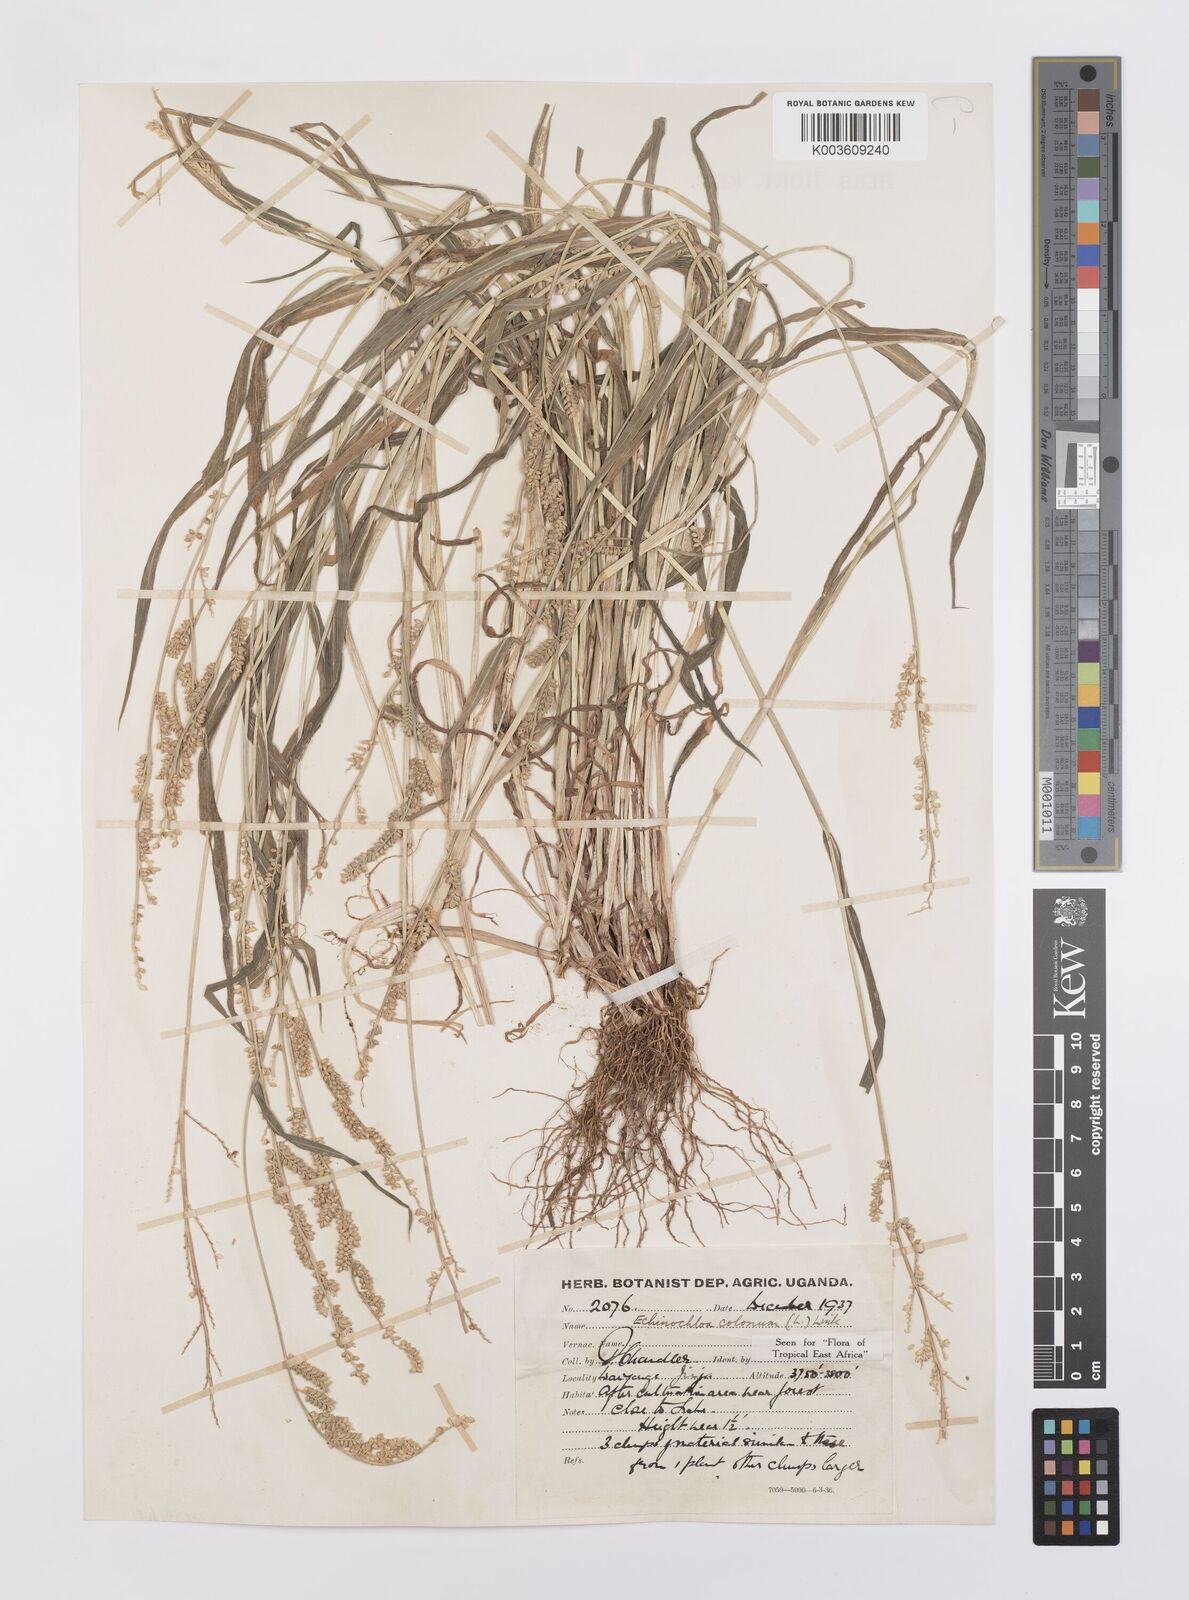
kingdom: Plantae
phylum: Tracheophyta
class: Liliopsida
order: Poales
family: Poaceae
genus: Echinochloa
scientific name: Echinochloa colonum
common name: Jungle rice
